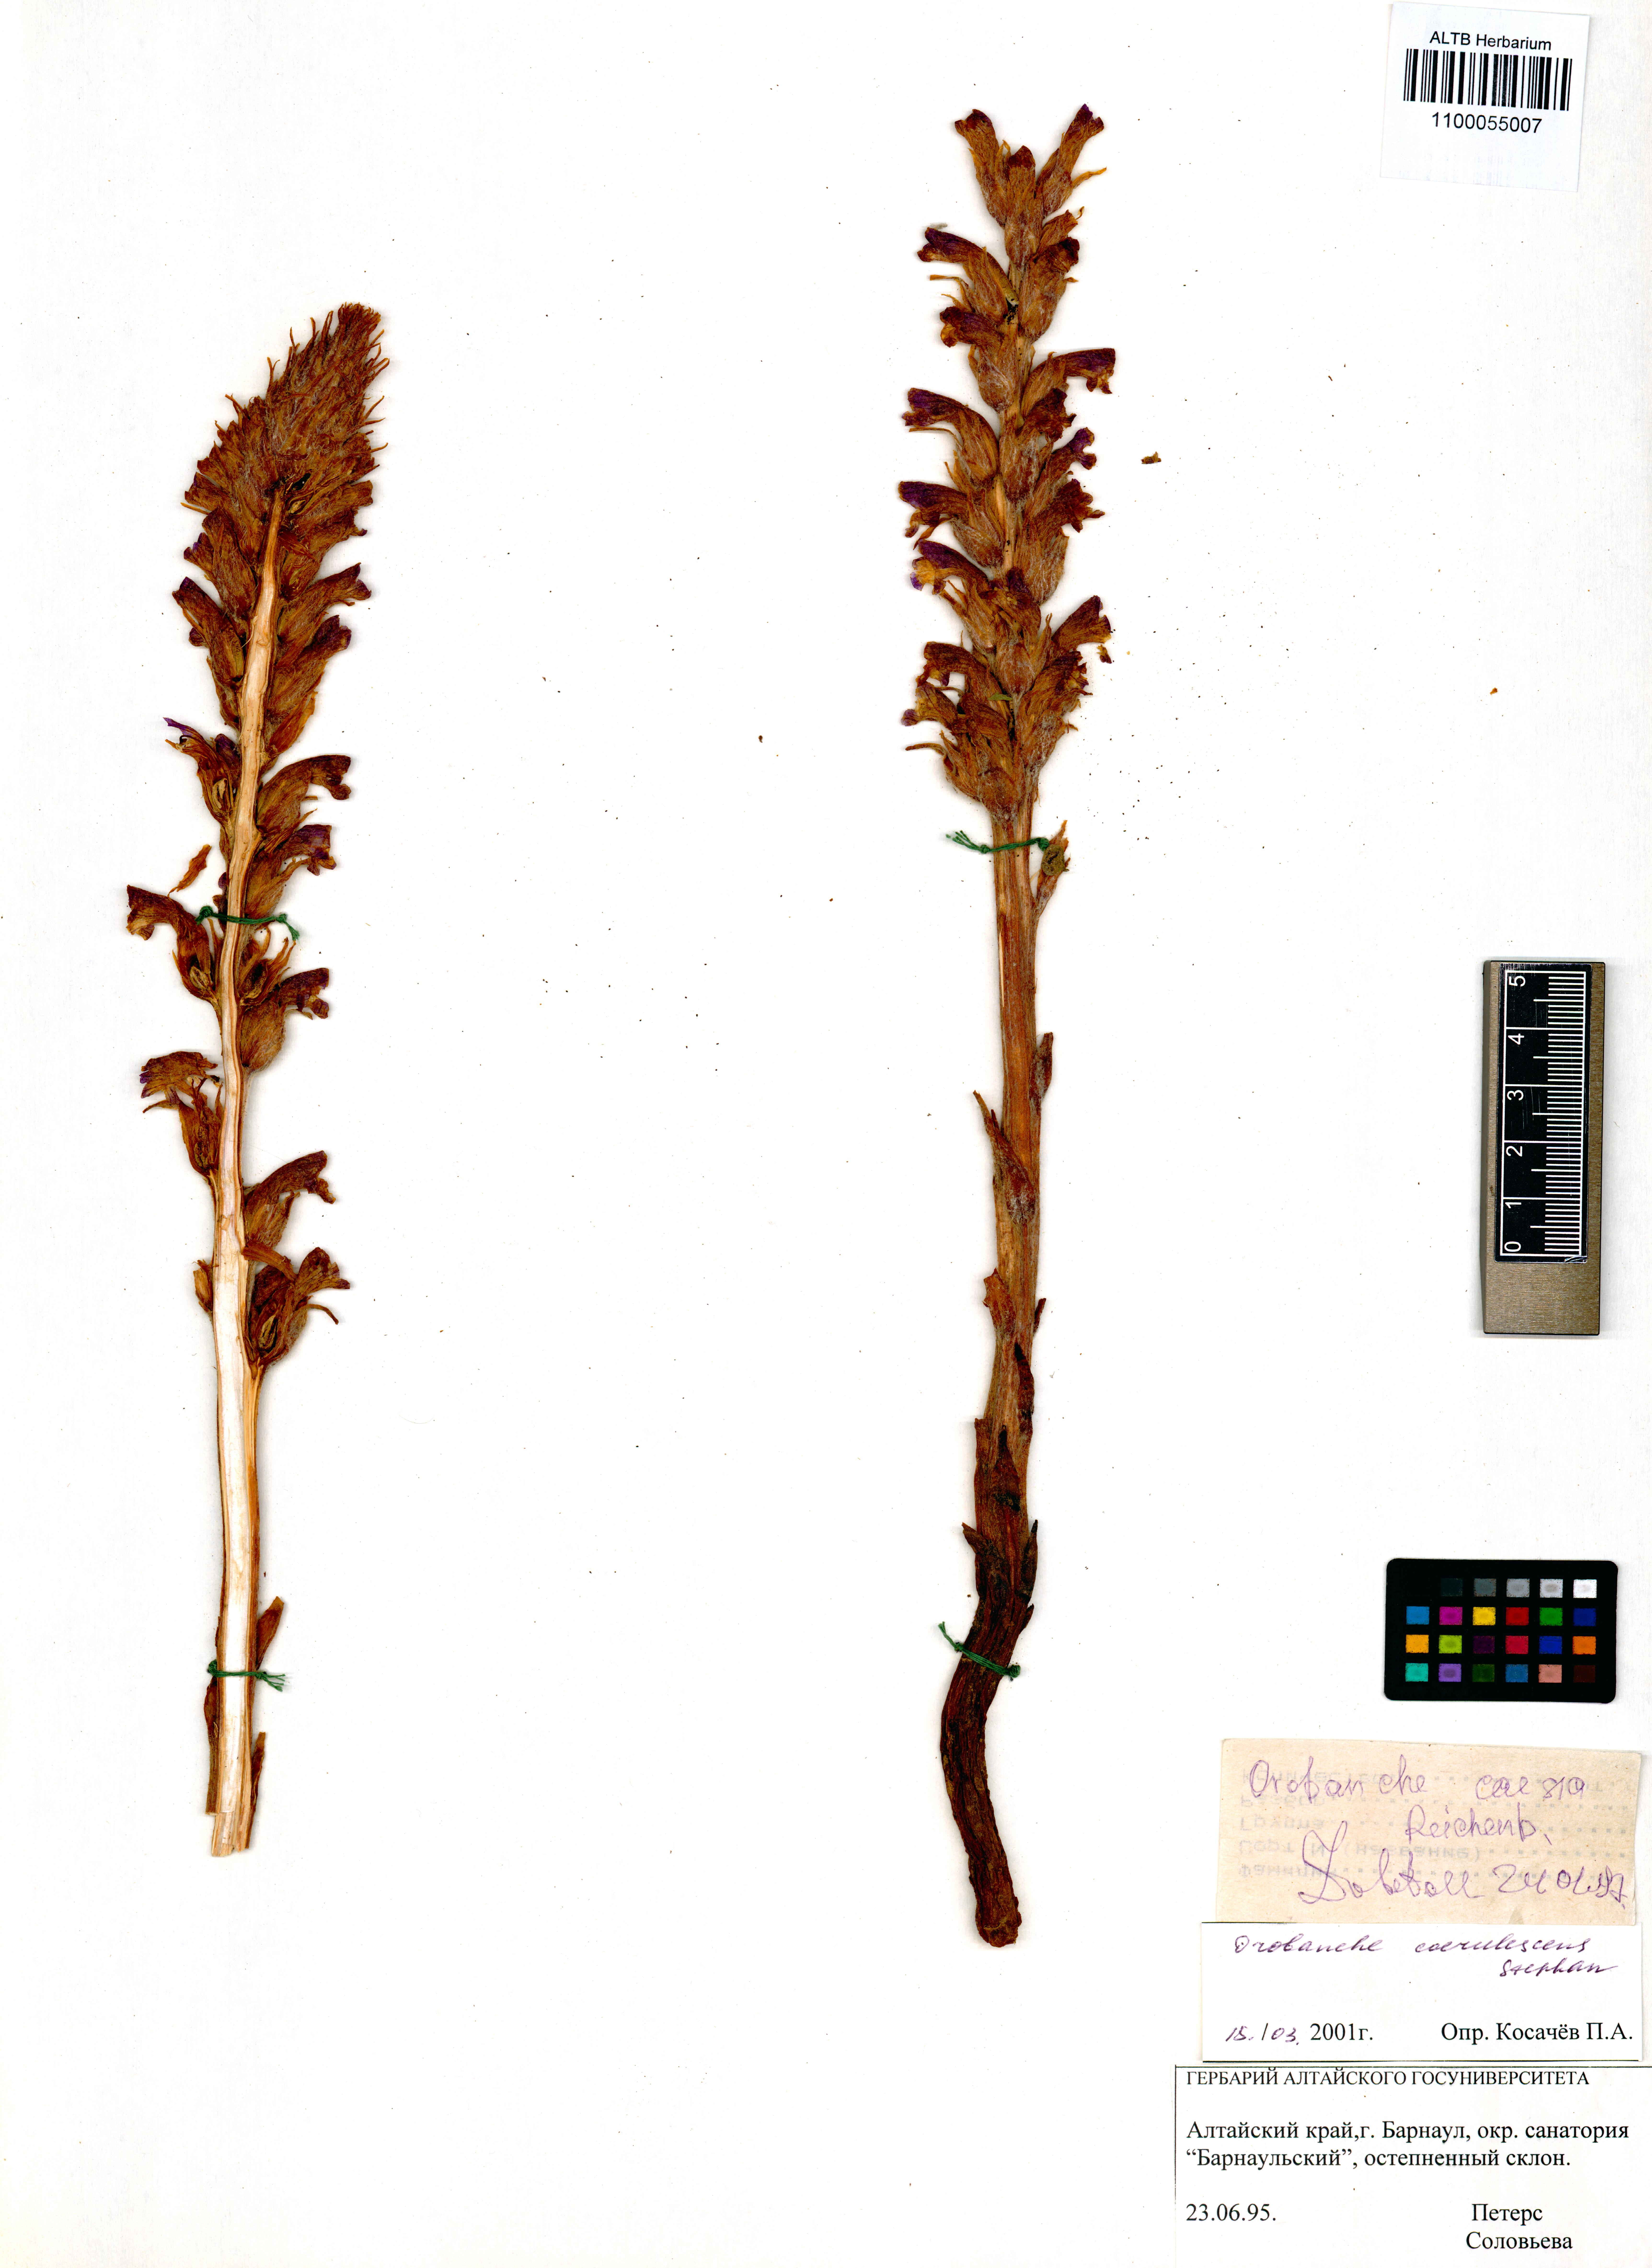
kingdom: Plantae
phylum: Tracheophyta
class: Magnoliopsida
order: Lamiales
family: Orobanchaceae
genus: Orobanche
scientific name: Orobanche coerulescens
